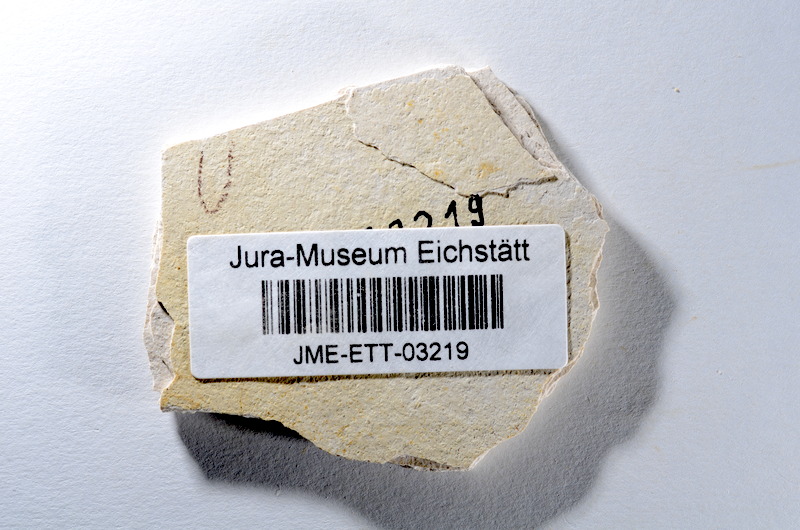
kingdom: Animalia
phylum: Chordata
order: Salmoniformes
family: Orthogonikleithridae
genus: Orthogonikleithrus
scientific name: Orthogonikleithrus hoelli
